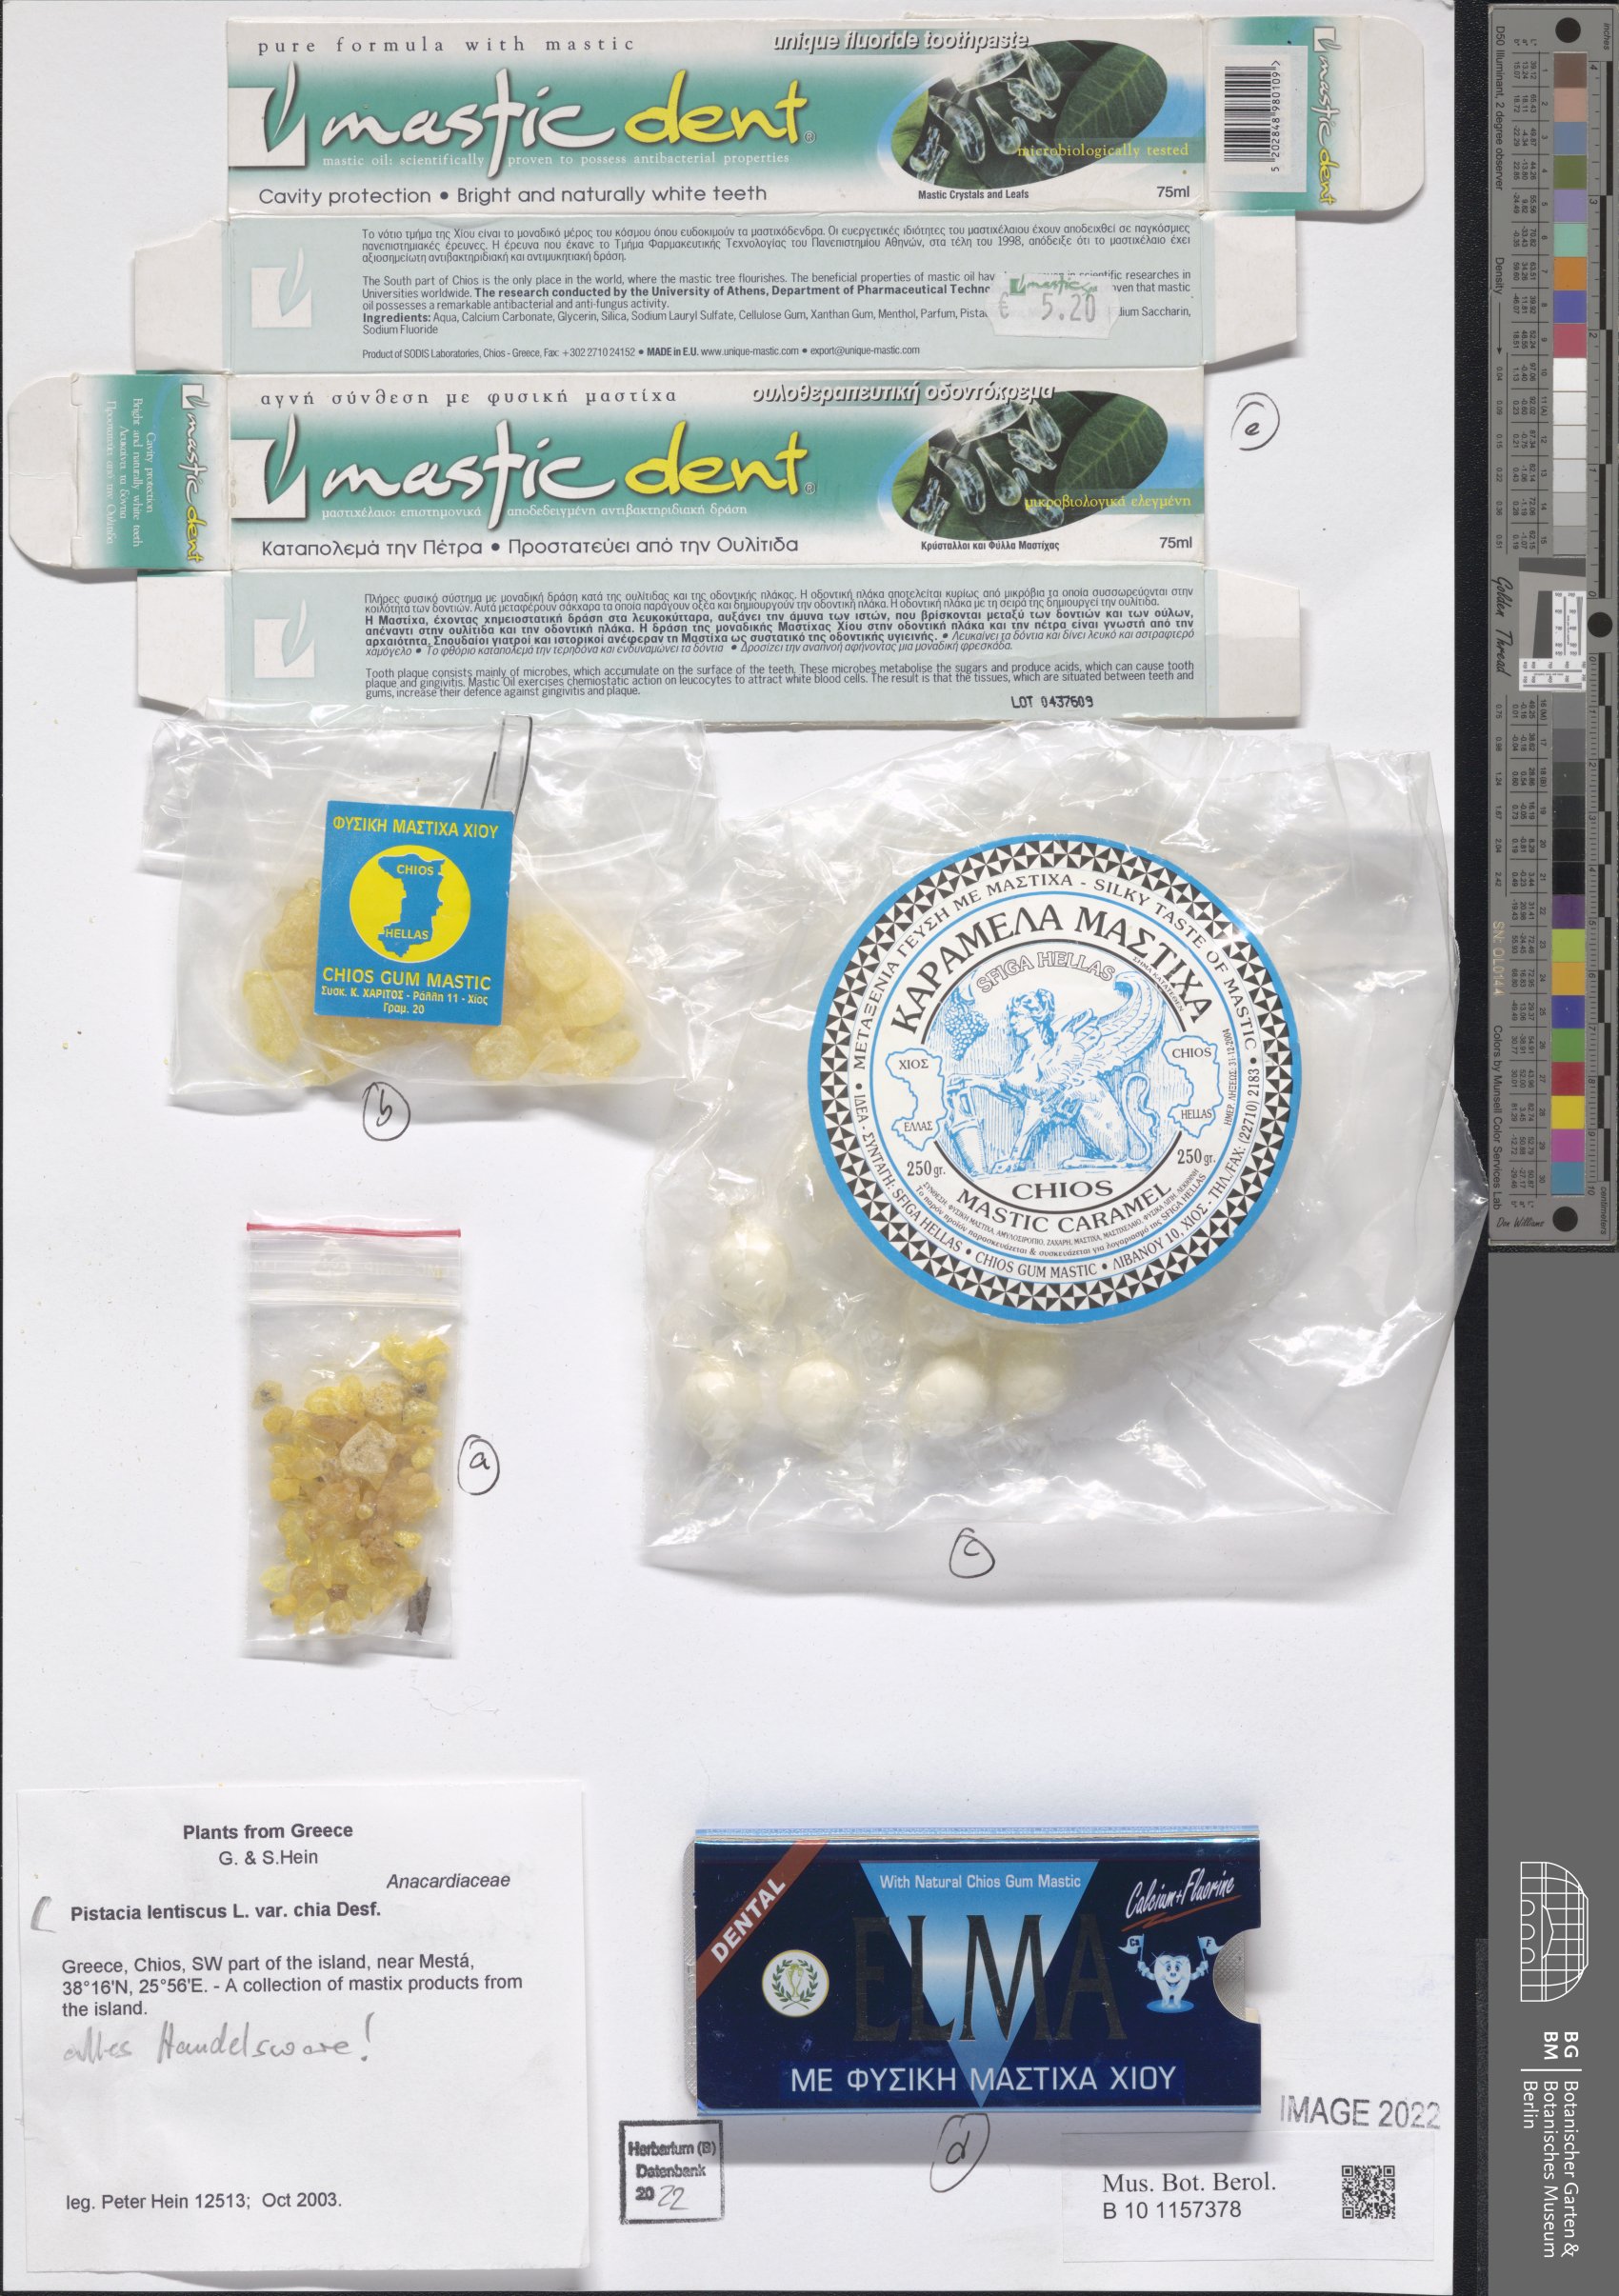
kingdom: Plantae
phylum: Tracheophyta
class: Magnoliopsida
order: Sapindales
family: Anacardiaceae
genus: Pistacia
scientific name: Pistacia lentiscus
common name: Lentisk
